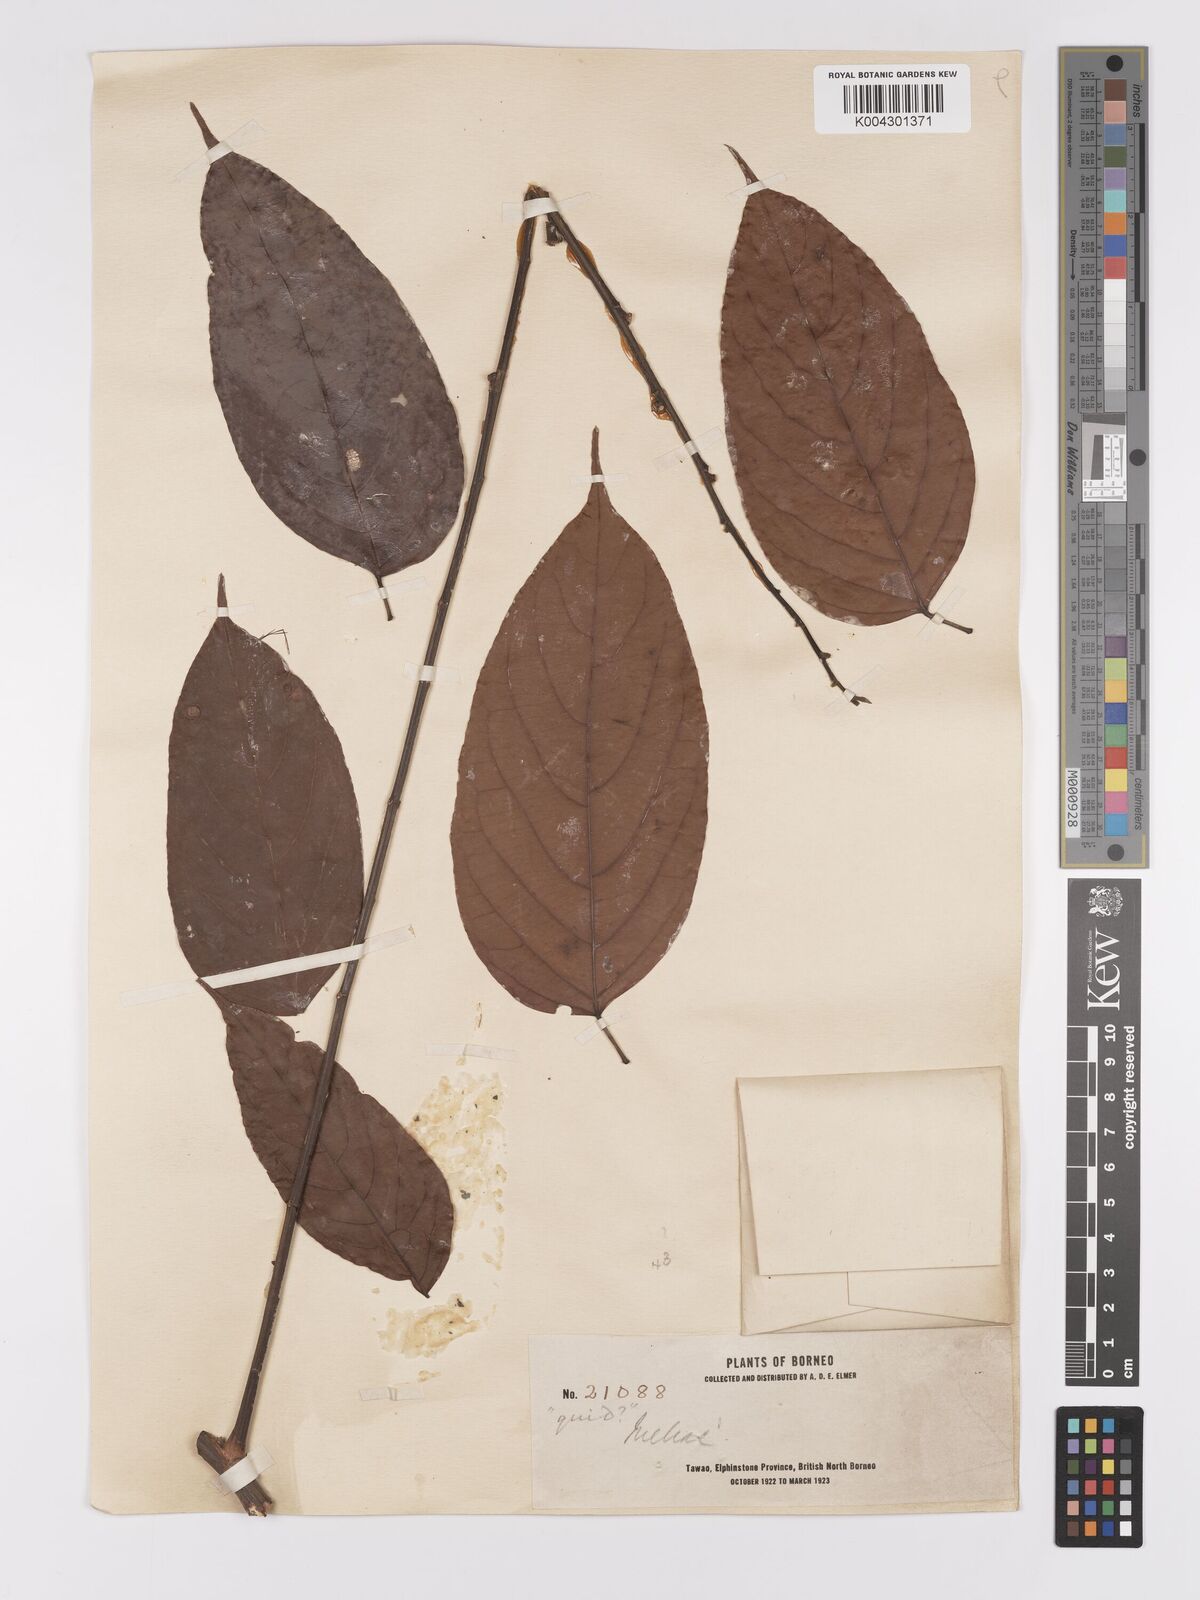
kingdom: Plantae
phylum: Tracheophyta
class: Magnoliopsida
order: Malpighiales
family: Achariaceae
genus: Hydnocarpus
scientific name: Hydnocarpus
